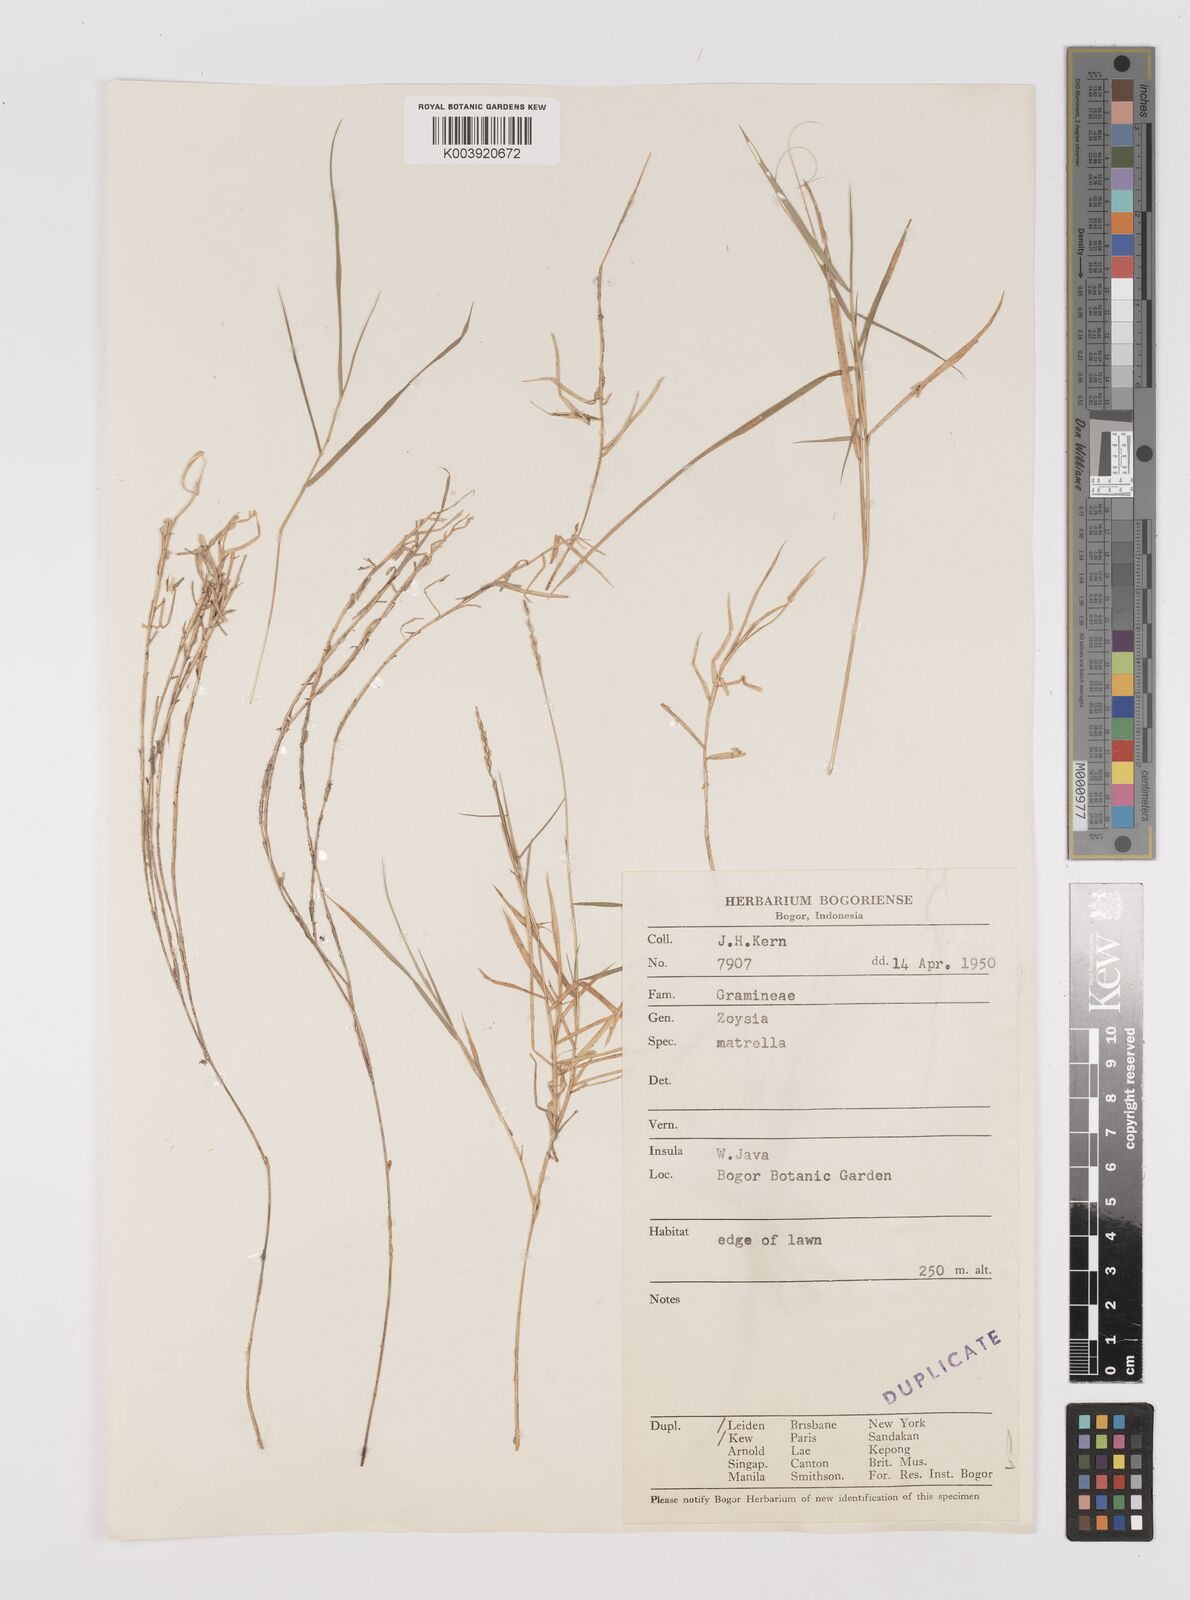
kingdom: Plantae
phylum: Tracheophyta
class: Liliopsida
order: Poales
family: Poaceae
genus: Zoysia
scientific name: Zoysia matrella
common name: Manila grass
